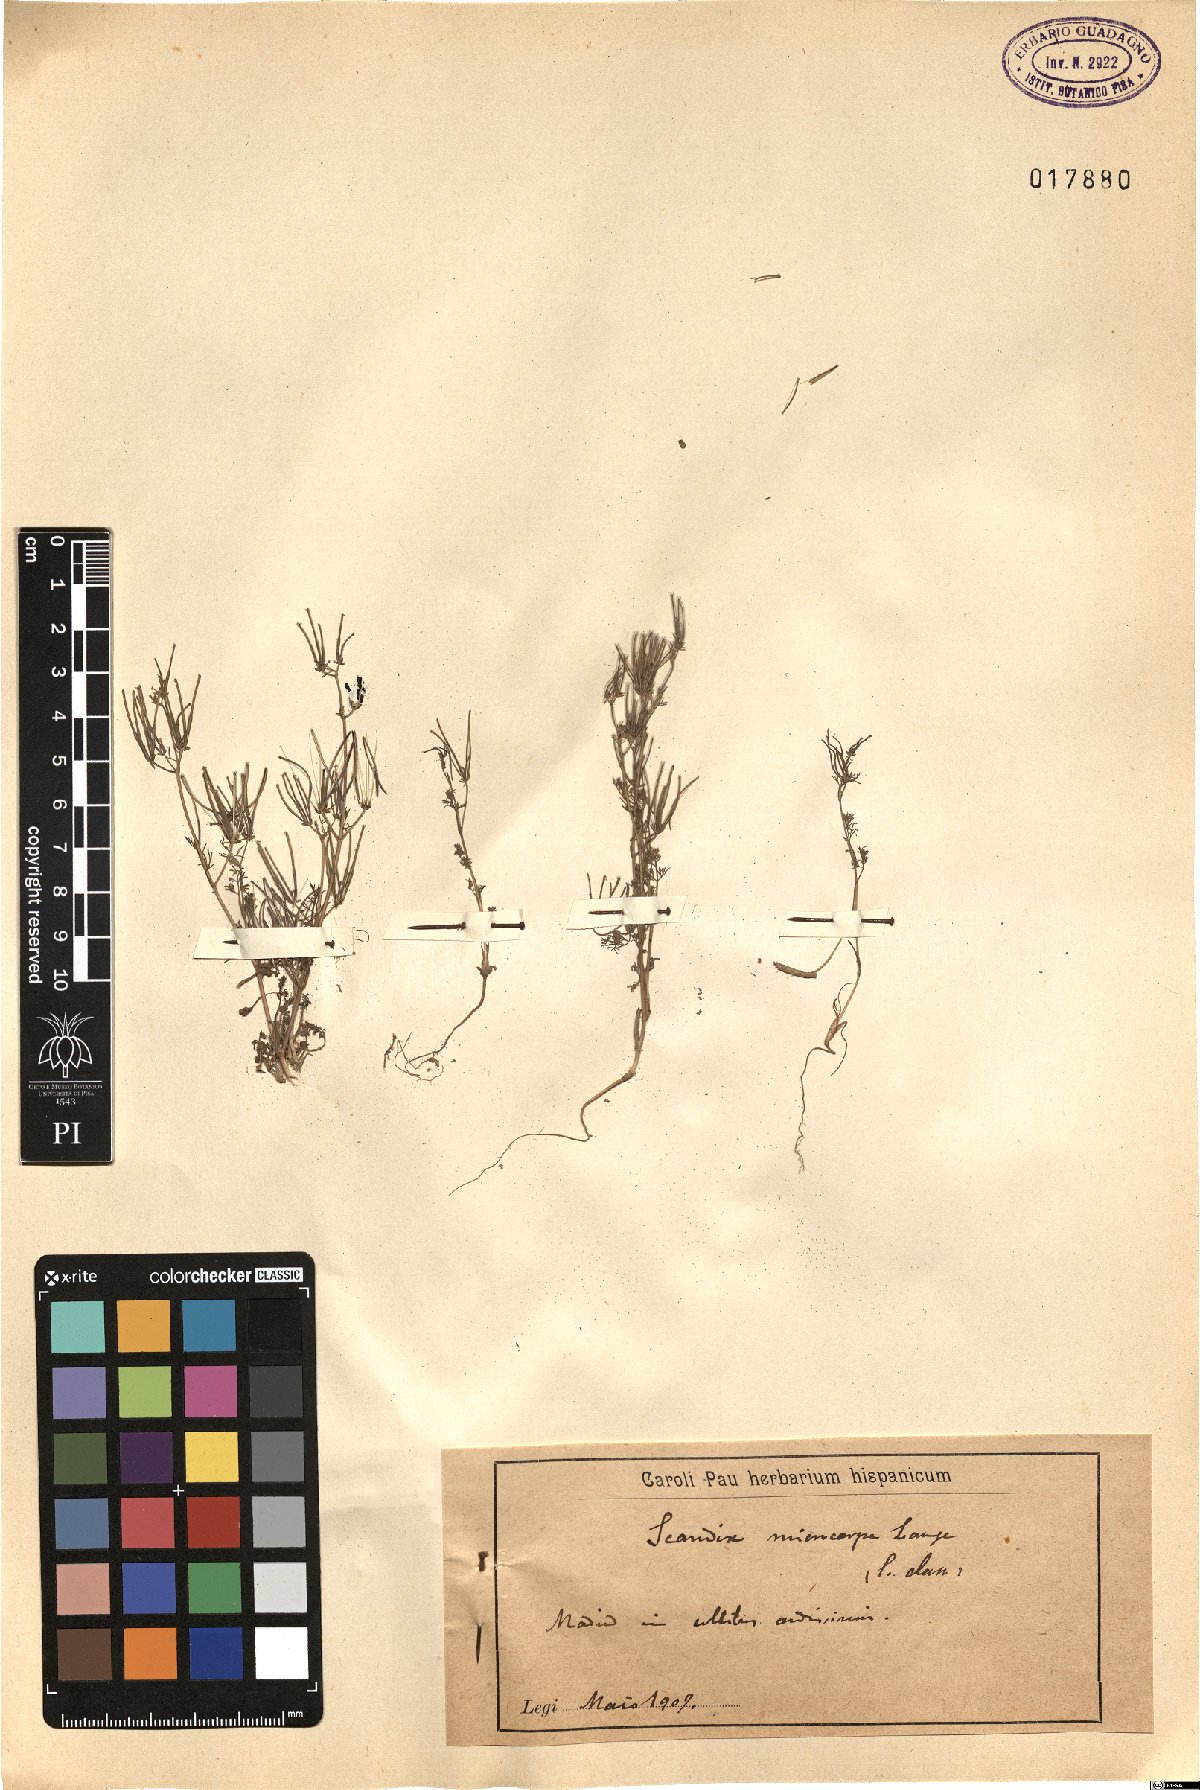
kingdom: Plantae
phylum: Tracheophyta
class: Magnoliopsida
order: Apiales
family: Apiaceae
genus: Scandix
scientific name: Scandix australis
